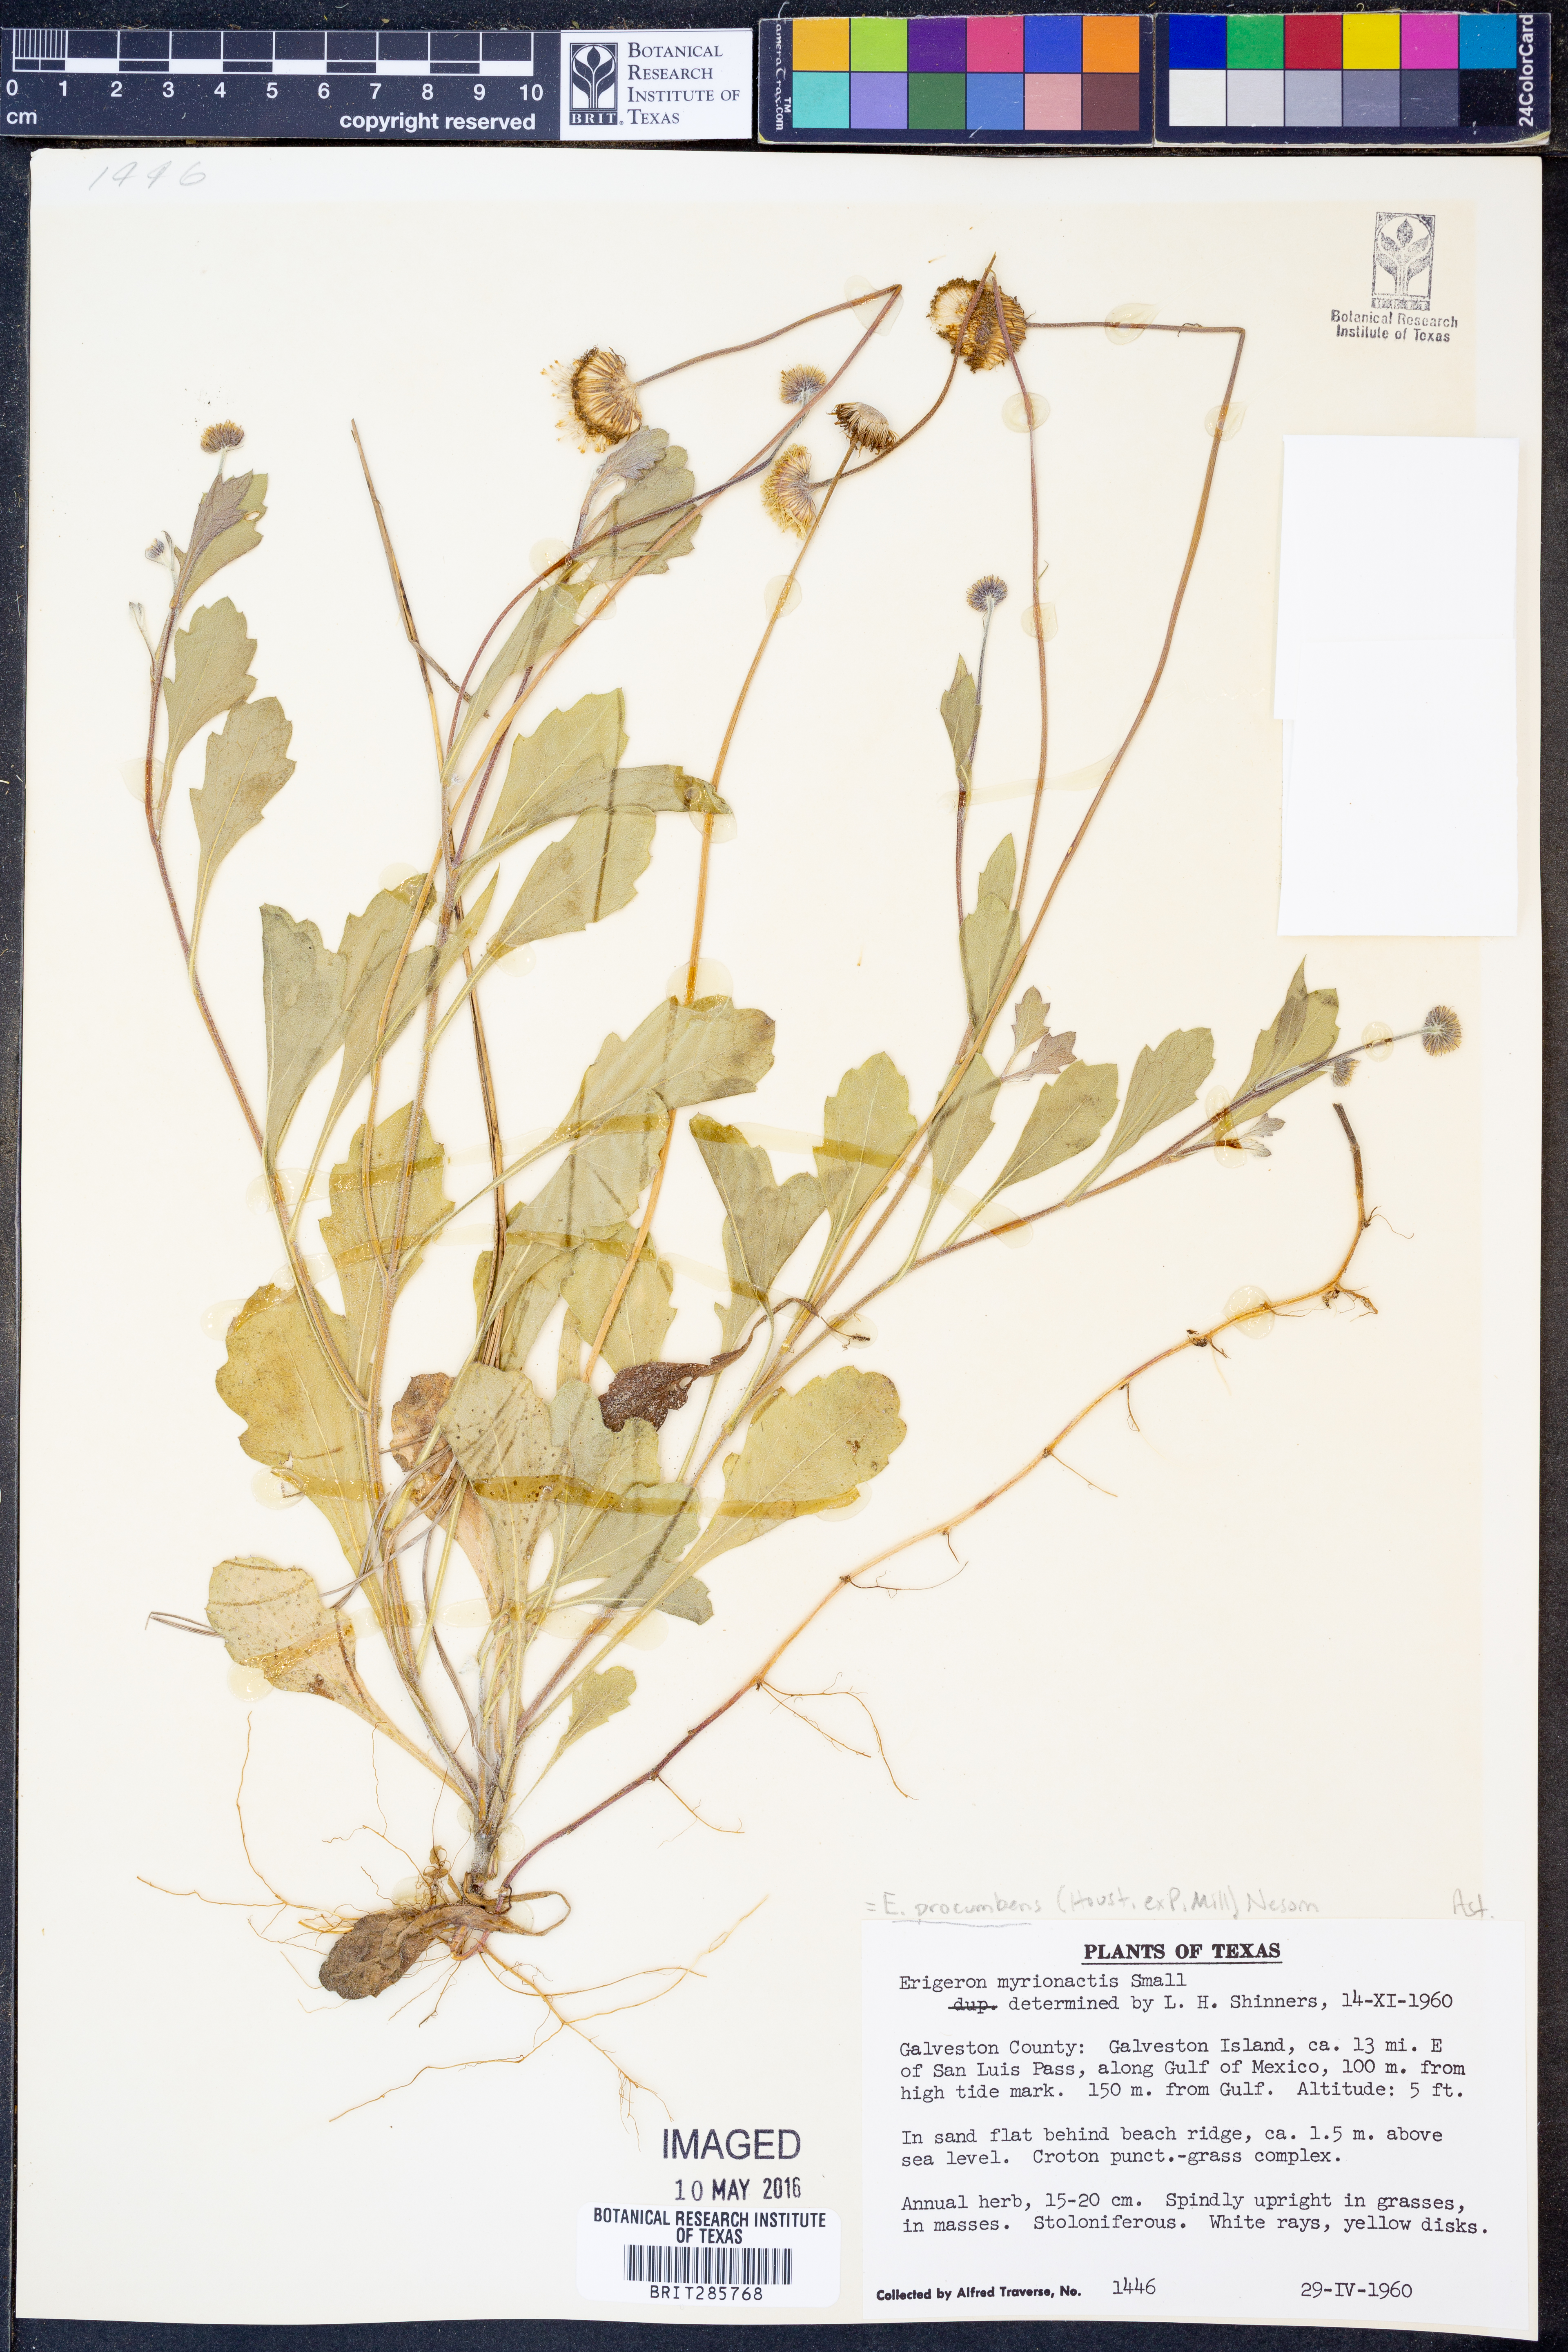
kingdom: Plantae
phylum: Tracheophyta
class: Magnoliopsida
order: Asterales
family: Asteraceae
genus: Erigeron
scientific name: Erigeron procumbens
